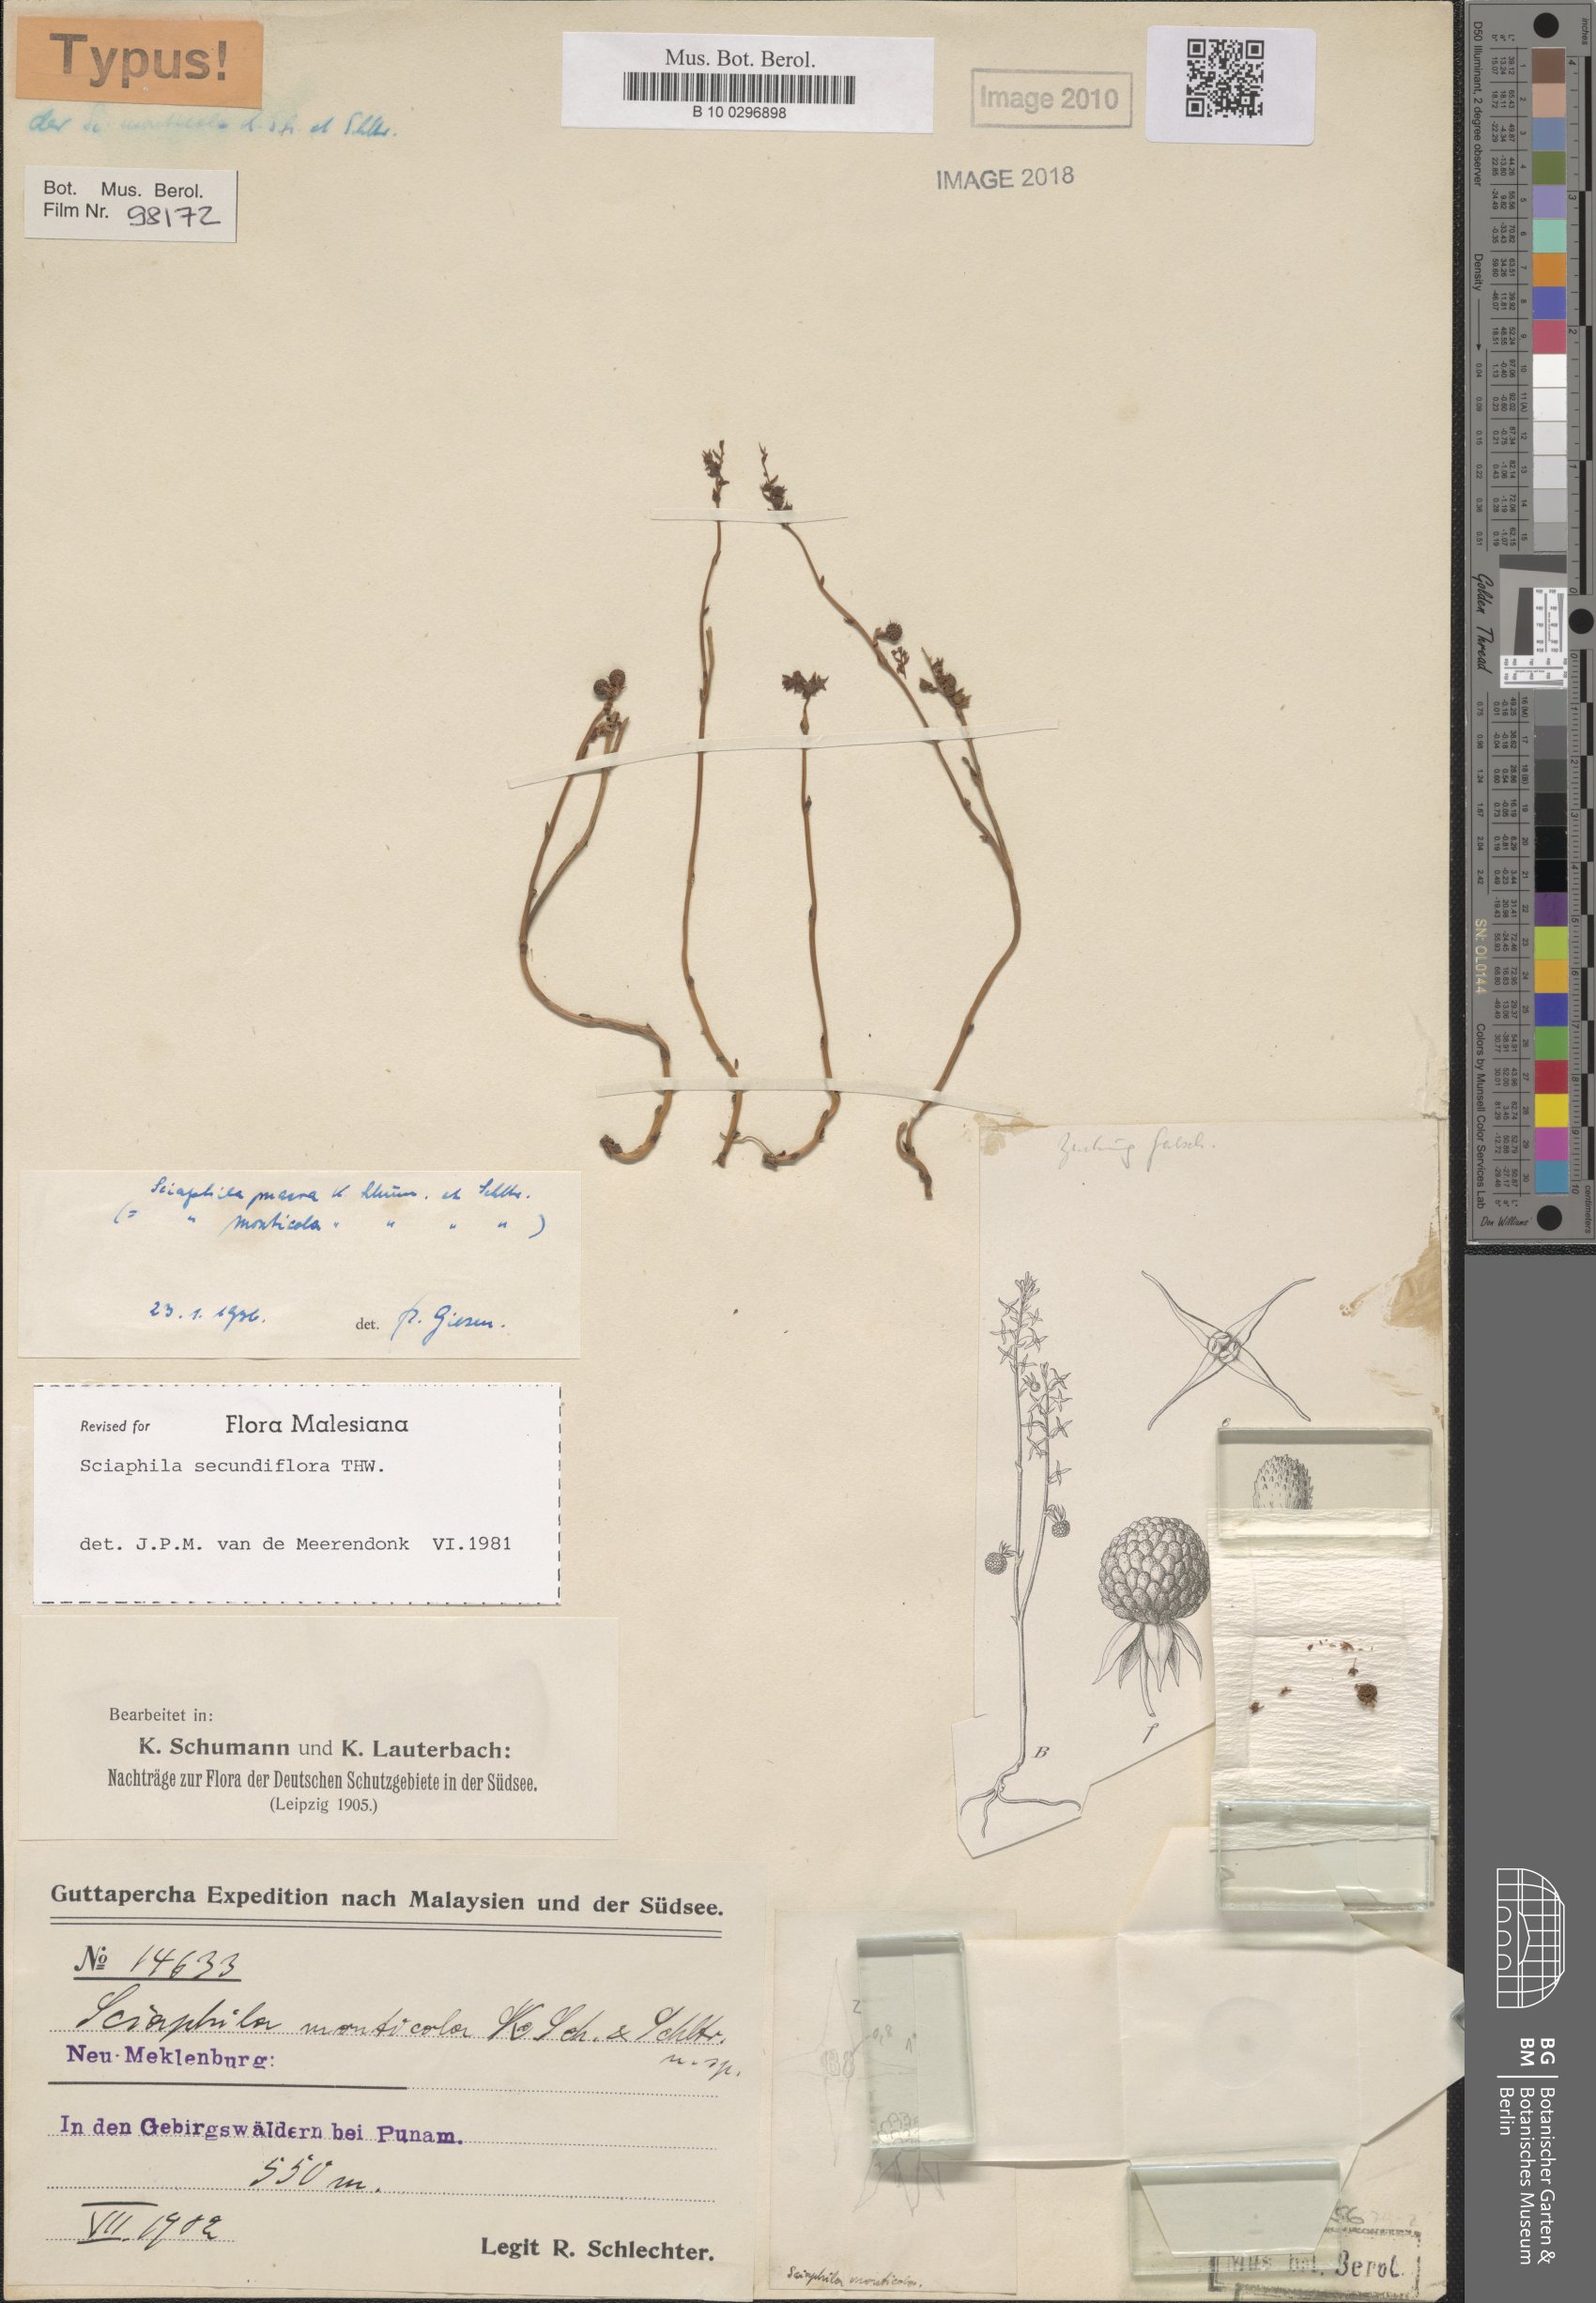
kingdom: Plantae
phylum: Tracheophyta
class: Liliopsida
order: Pandanales
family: Triuridaceae
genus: Sciaphila
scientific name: Sciaphila secundiflora
